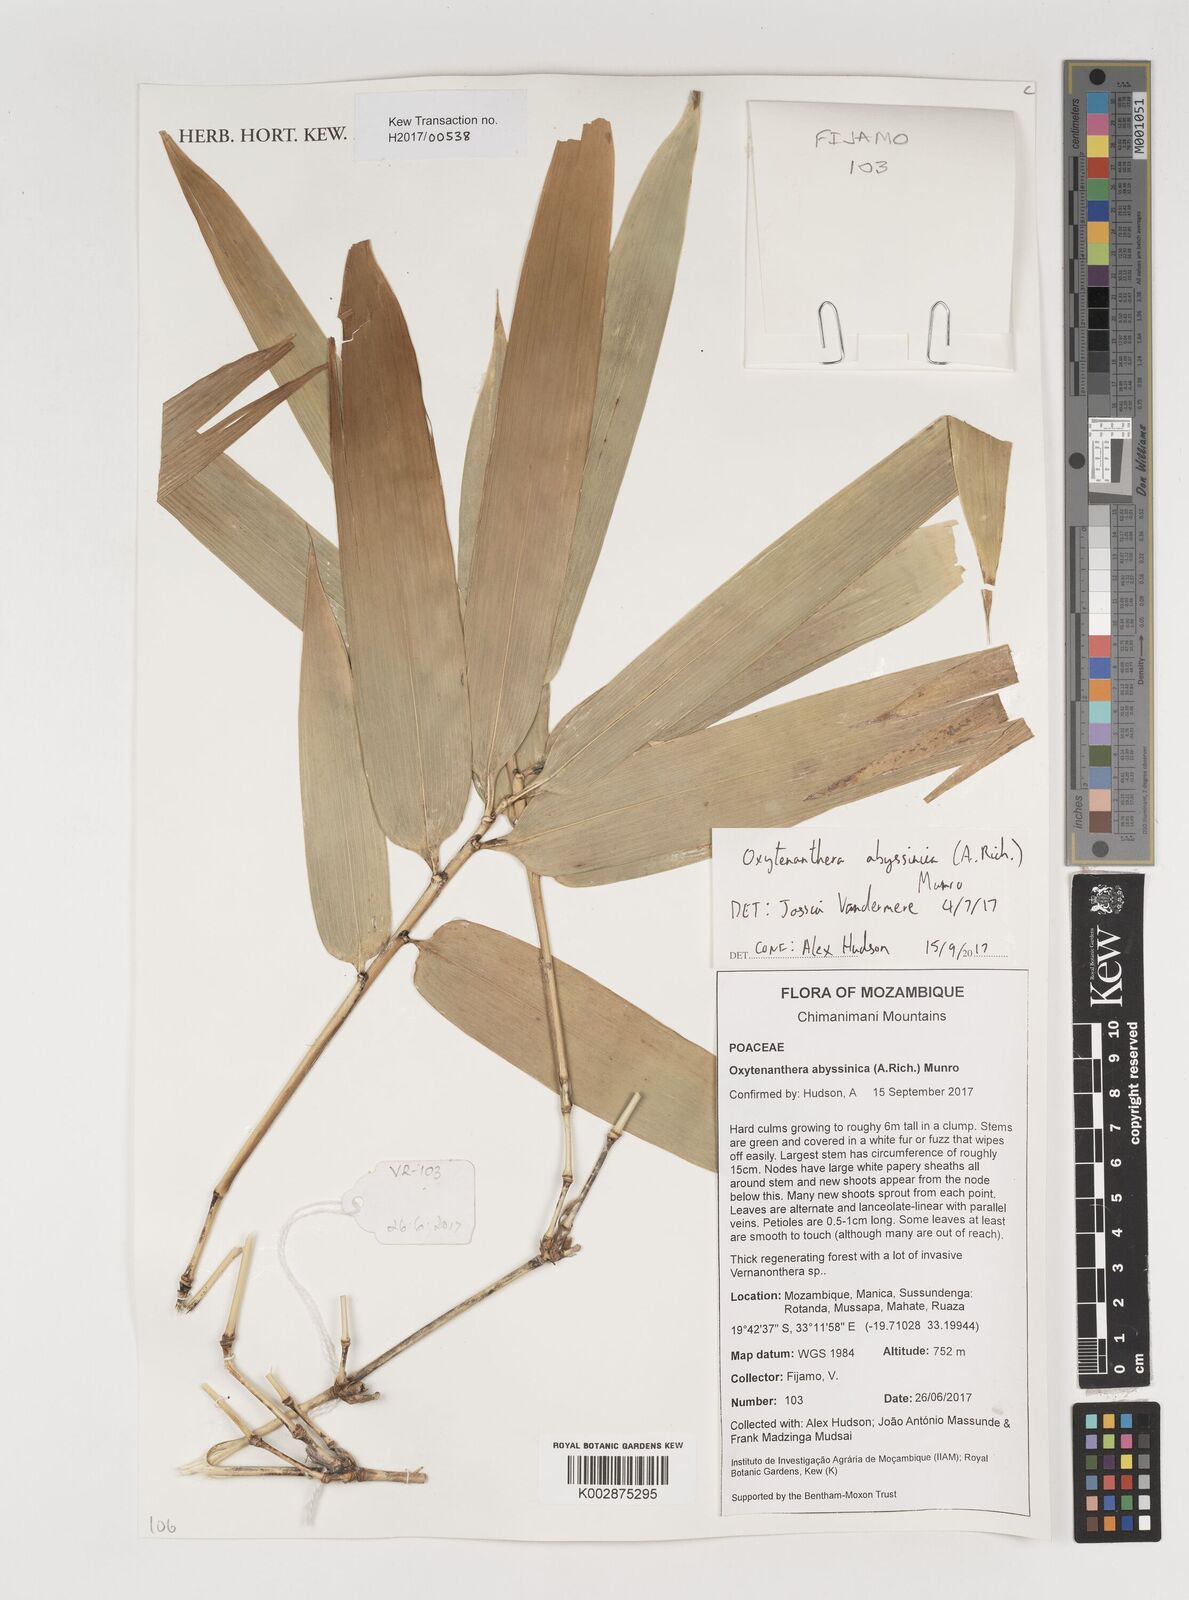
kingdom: Plantae
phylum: Tracheophyta
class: Liliopsida
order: Poales
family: Poaceae
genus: Oxytenanthera
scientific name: Oxytenanthera abyssinica
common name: Wine bamboo
